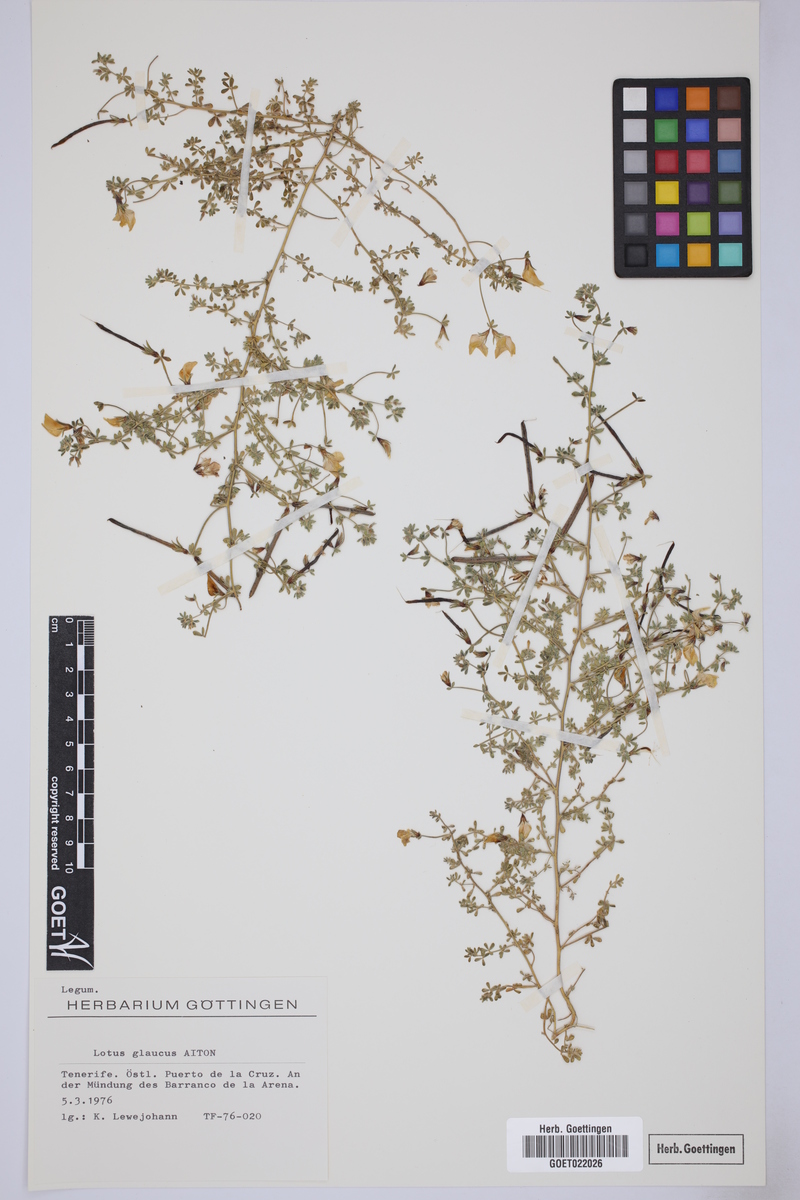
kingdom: Plantae
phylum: Tracheophyta
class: Magnoliopsida
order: Fabales
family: Fabaceae
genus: Lotus
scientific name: Lotus glaucus
